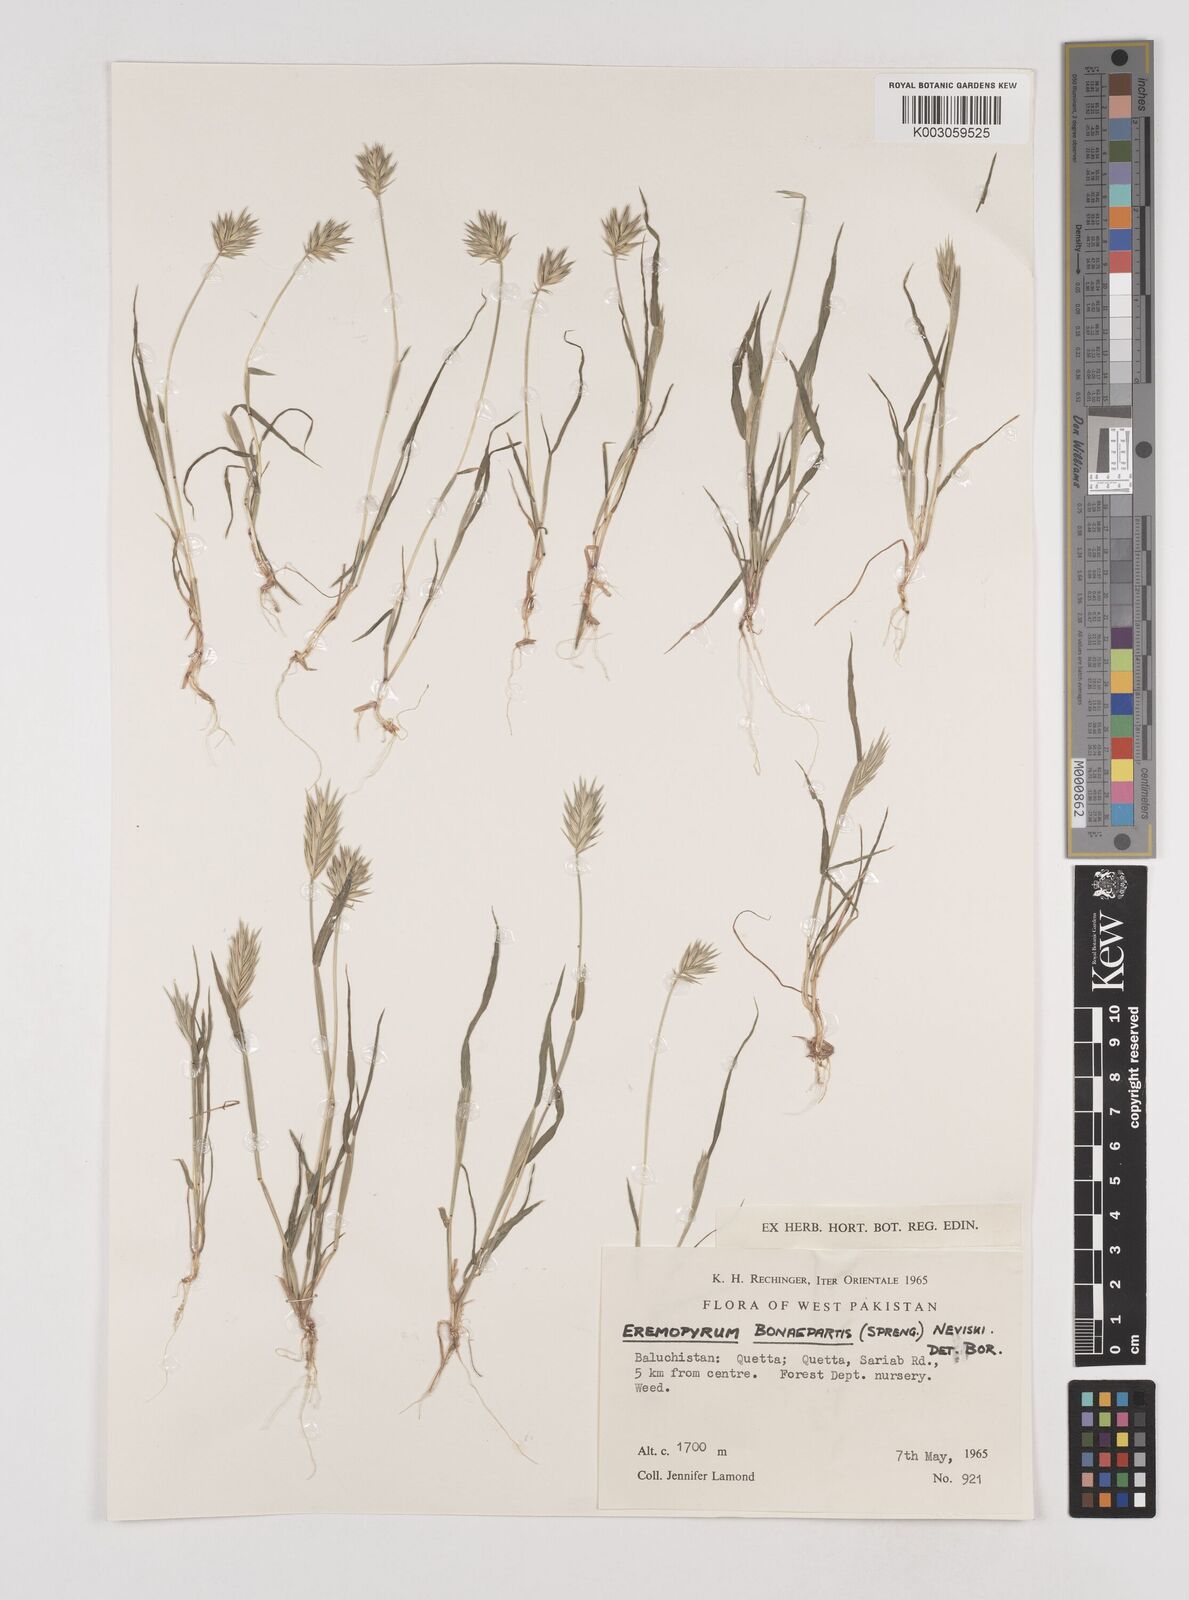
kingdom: Plantae
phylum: Tracheophyta
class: Liliopsida
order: Poales
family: Poaceae
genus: Eremopyrum
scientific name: Eremopyrum bonaepartis
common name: Tapertip false wheatgrass
